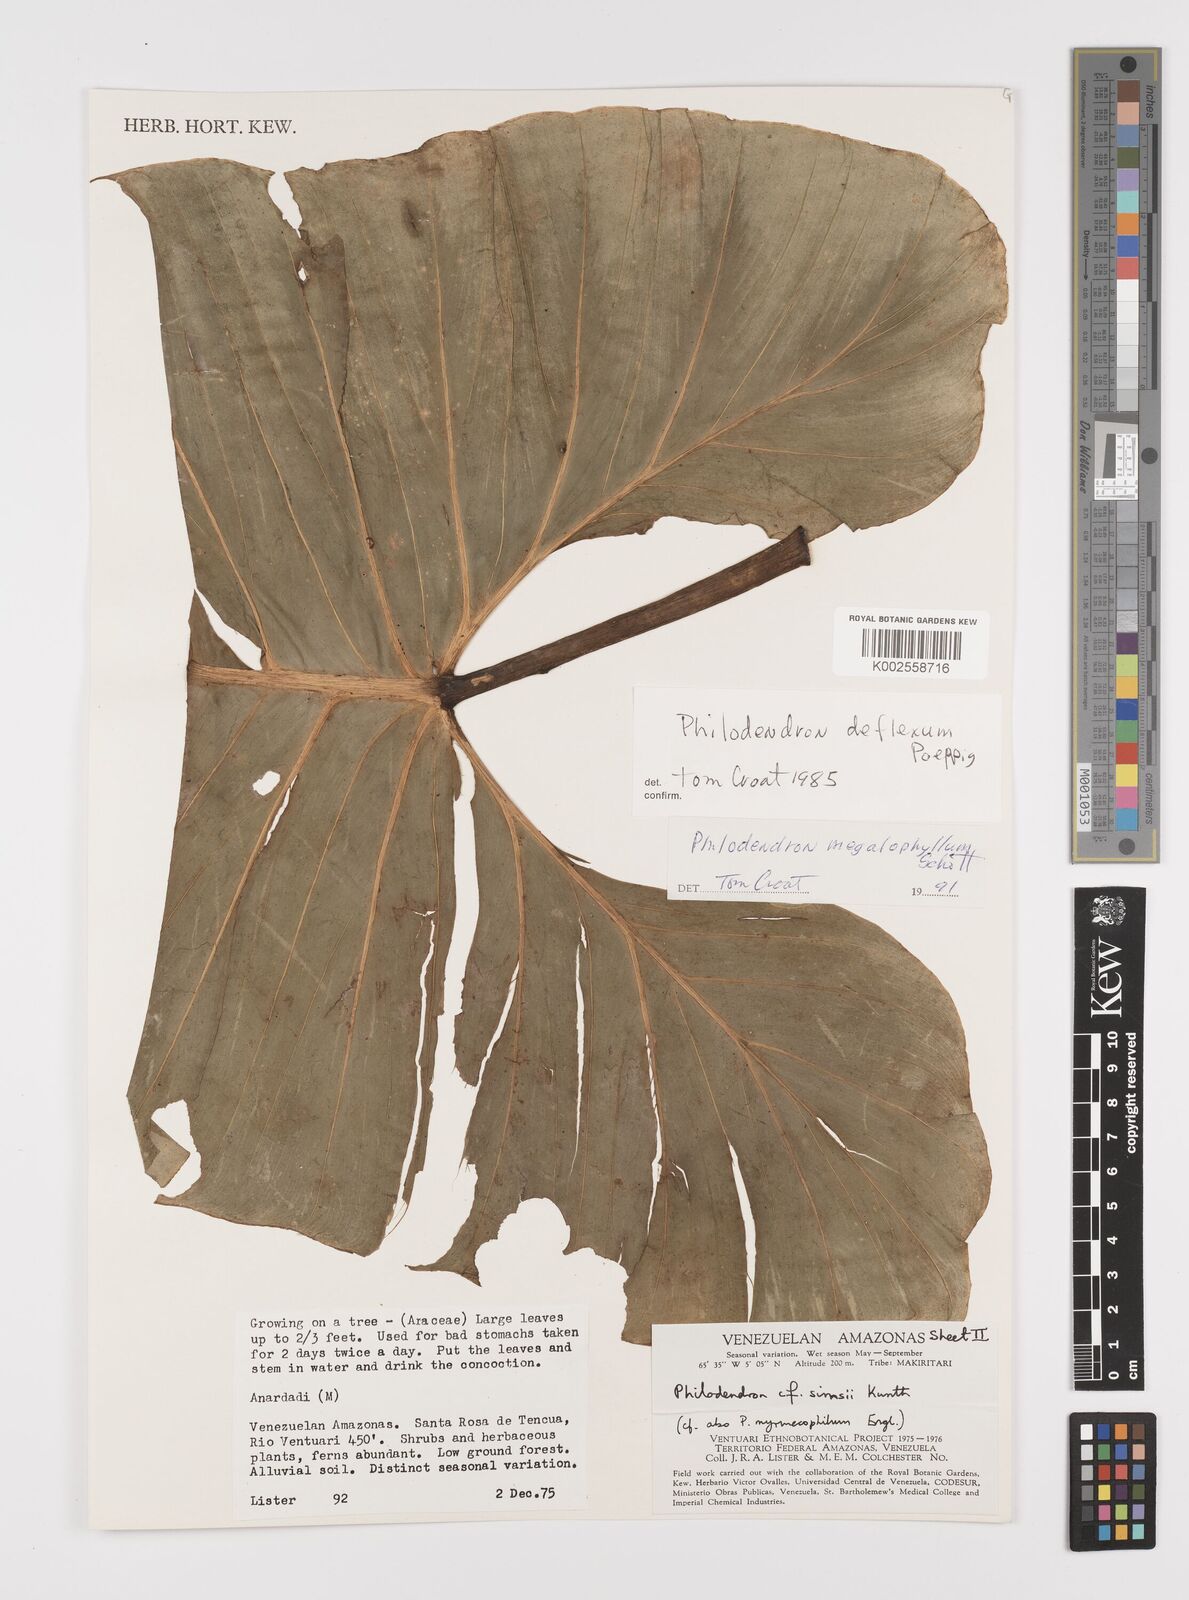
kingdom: Plantae
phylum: Tracheophyta
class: Liliopsida
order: Alismatales
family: Araceae
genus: Philodendron
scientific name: Philodendron deflexum
